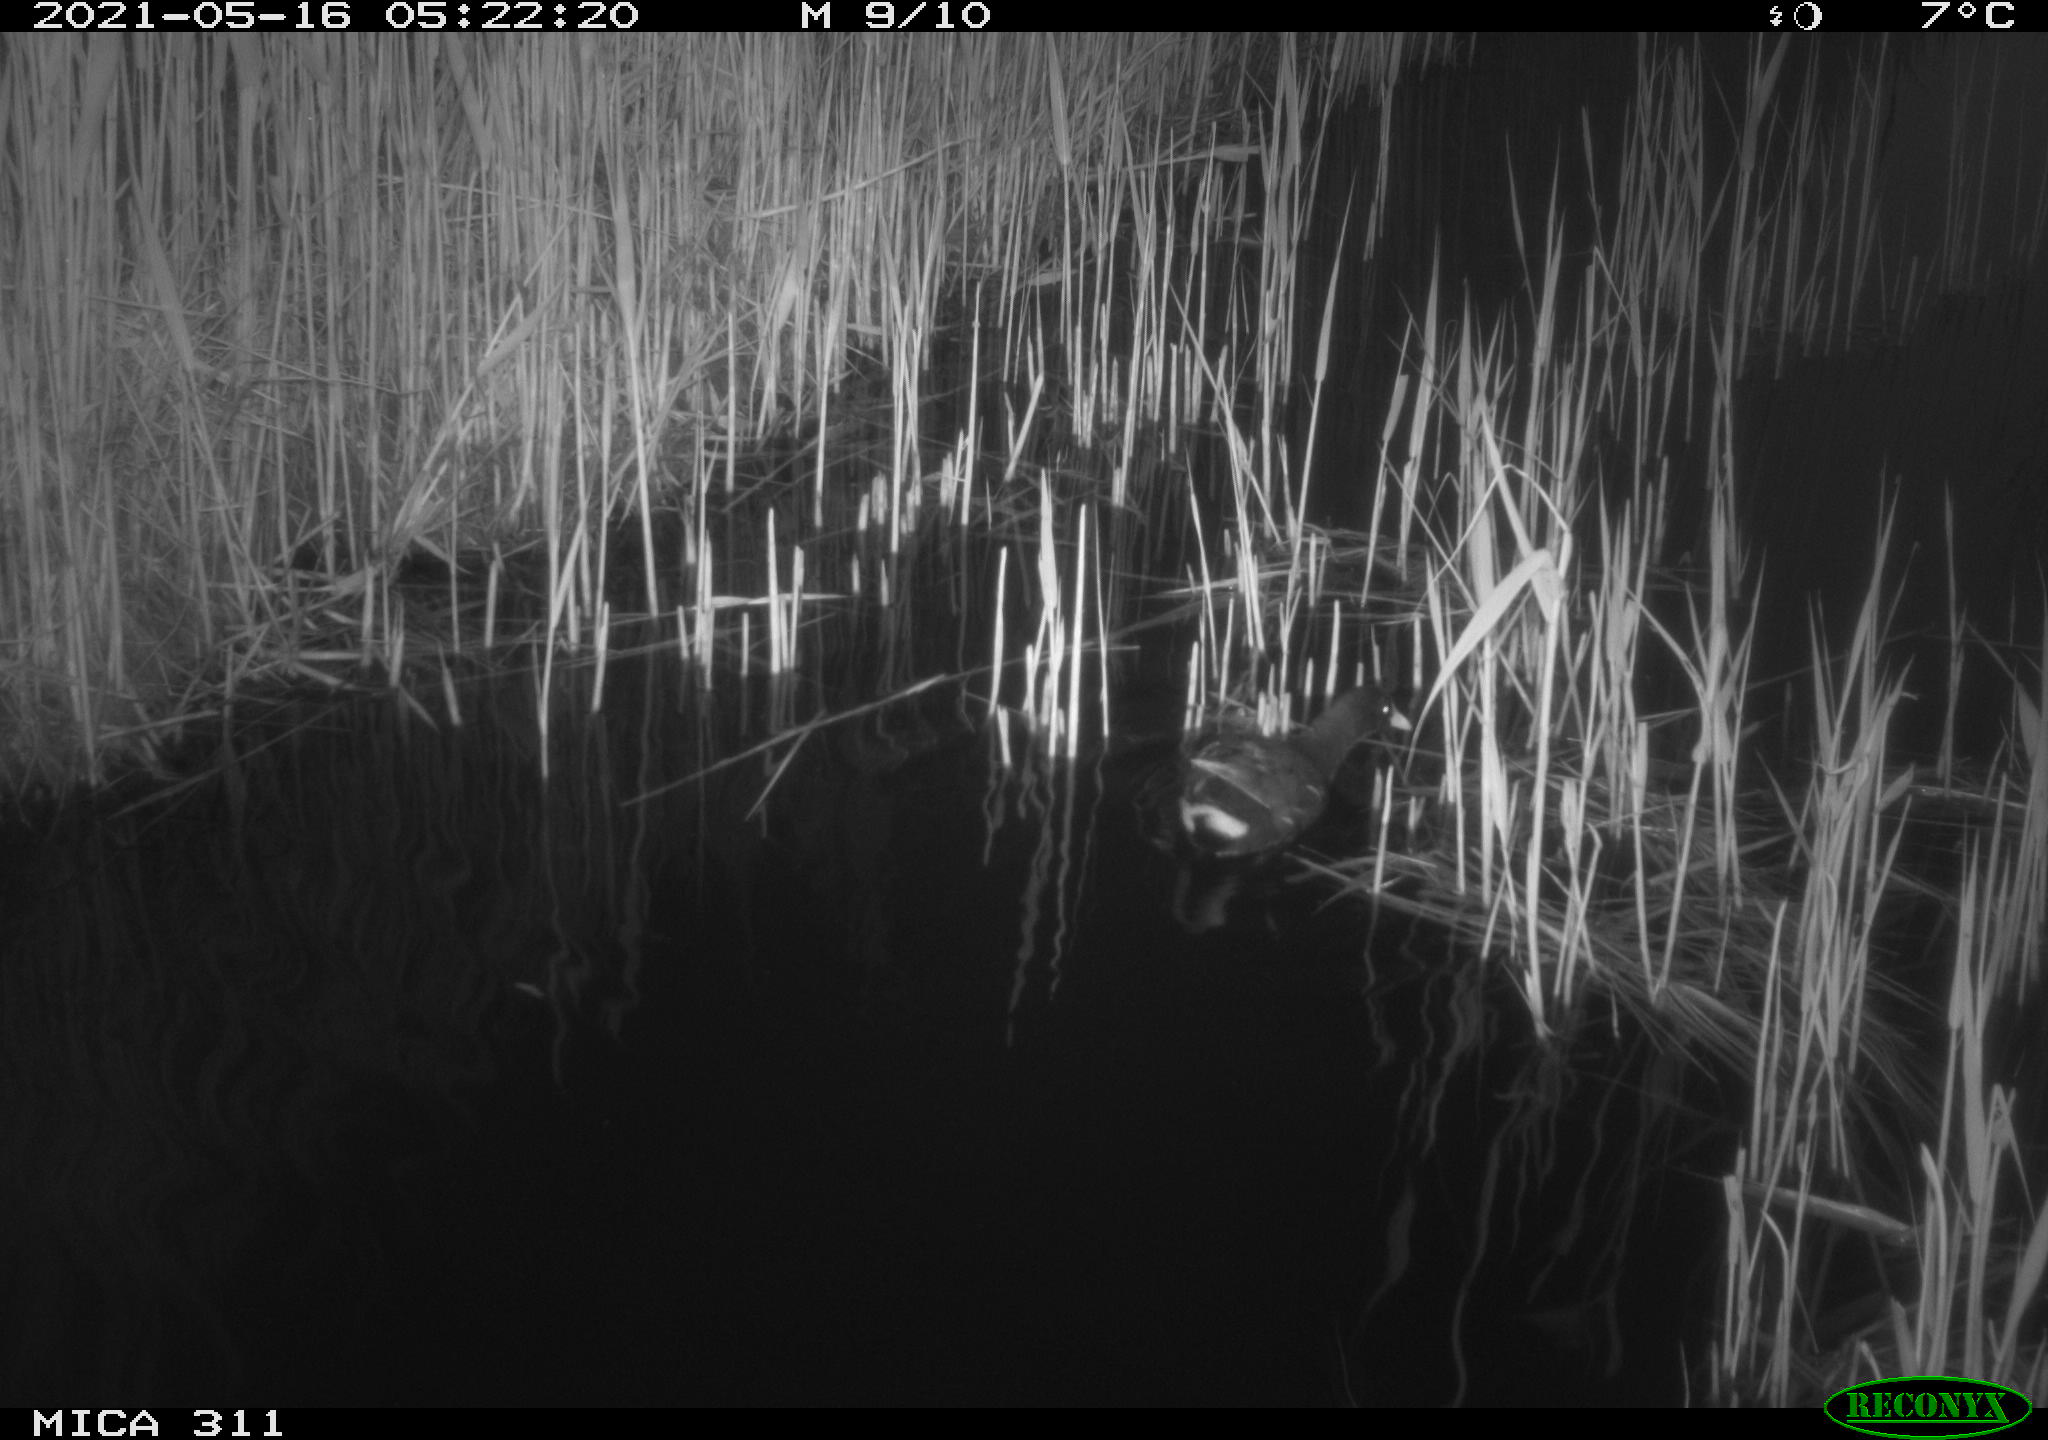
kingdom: Animalia
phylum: Chordata
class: Aves
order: Gruiformes
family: Rallidae
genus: Gallinula
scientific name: Gallinula chloropus
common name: Common moorhen
